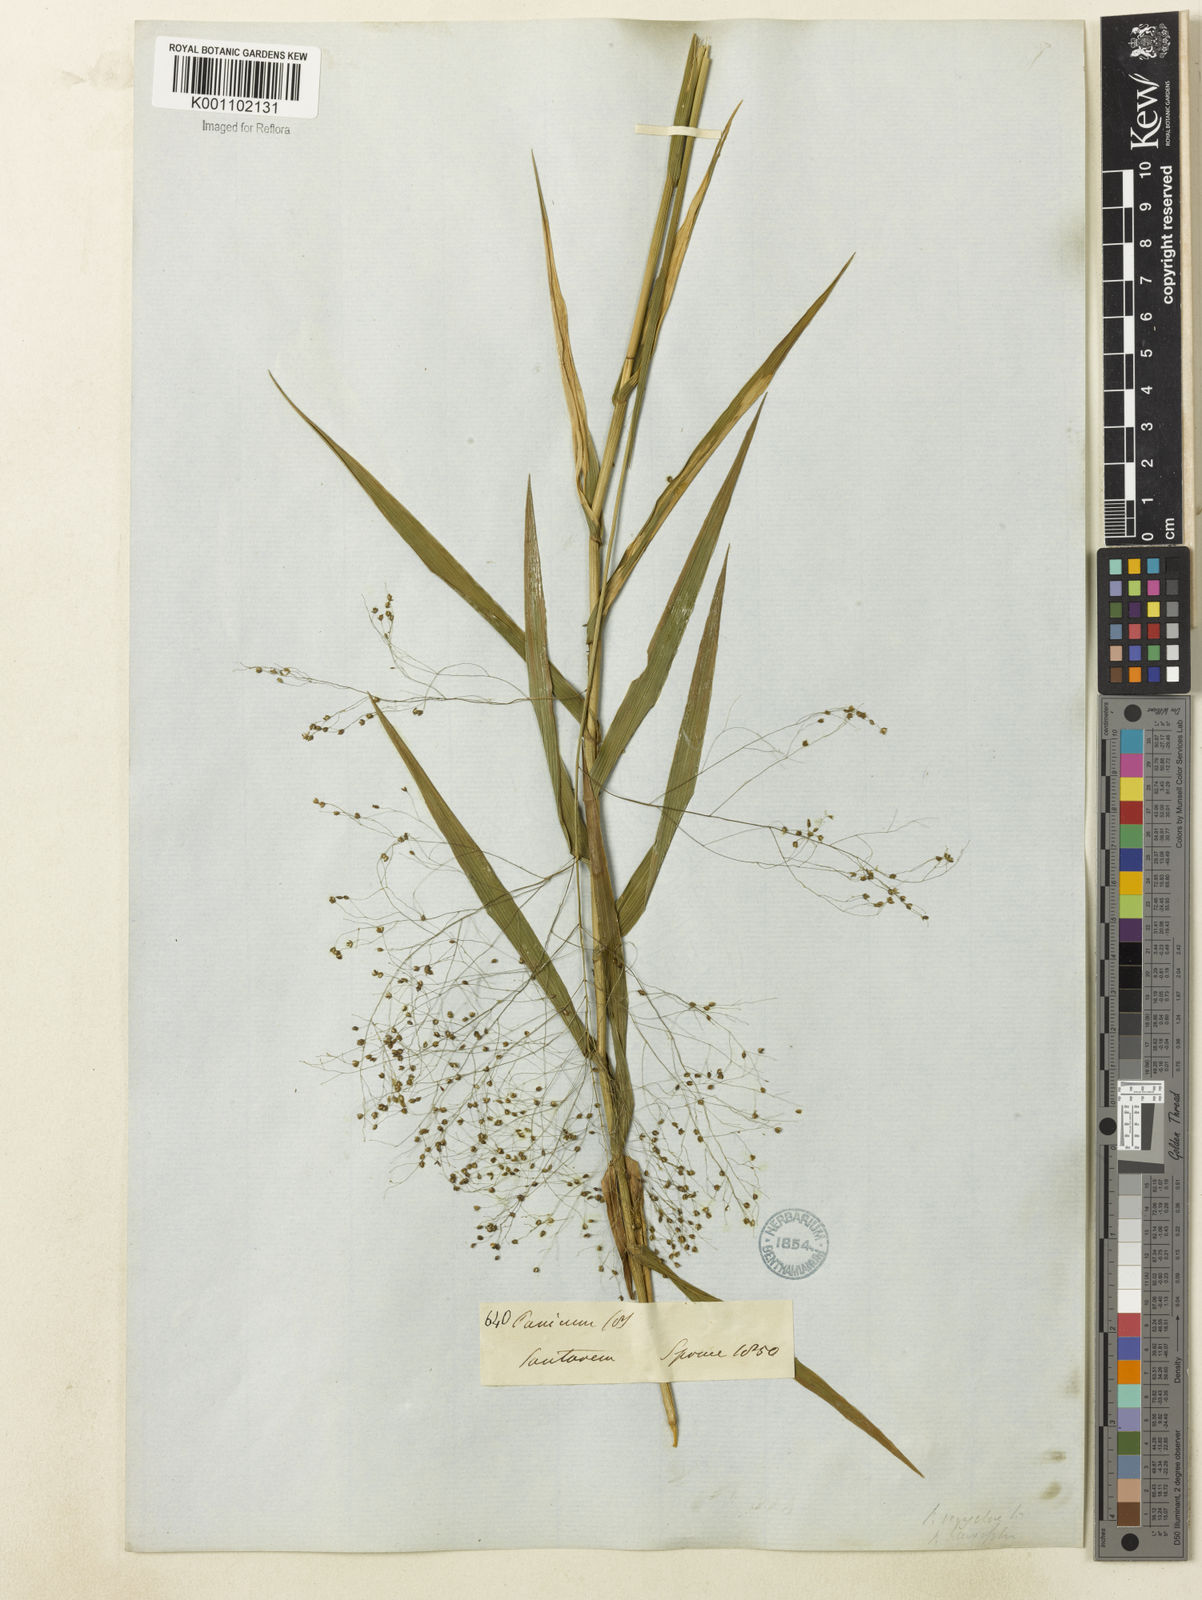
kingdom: Plantae
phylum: Tracheophyta
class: Liliopsida
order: Poales
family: Poaceae
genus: Trichanthecium
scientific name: Trichanthecium nervosum
